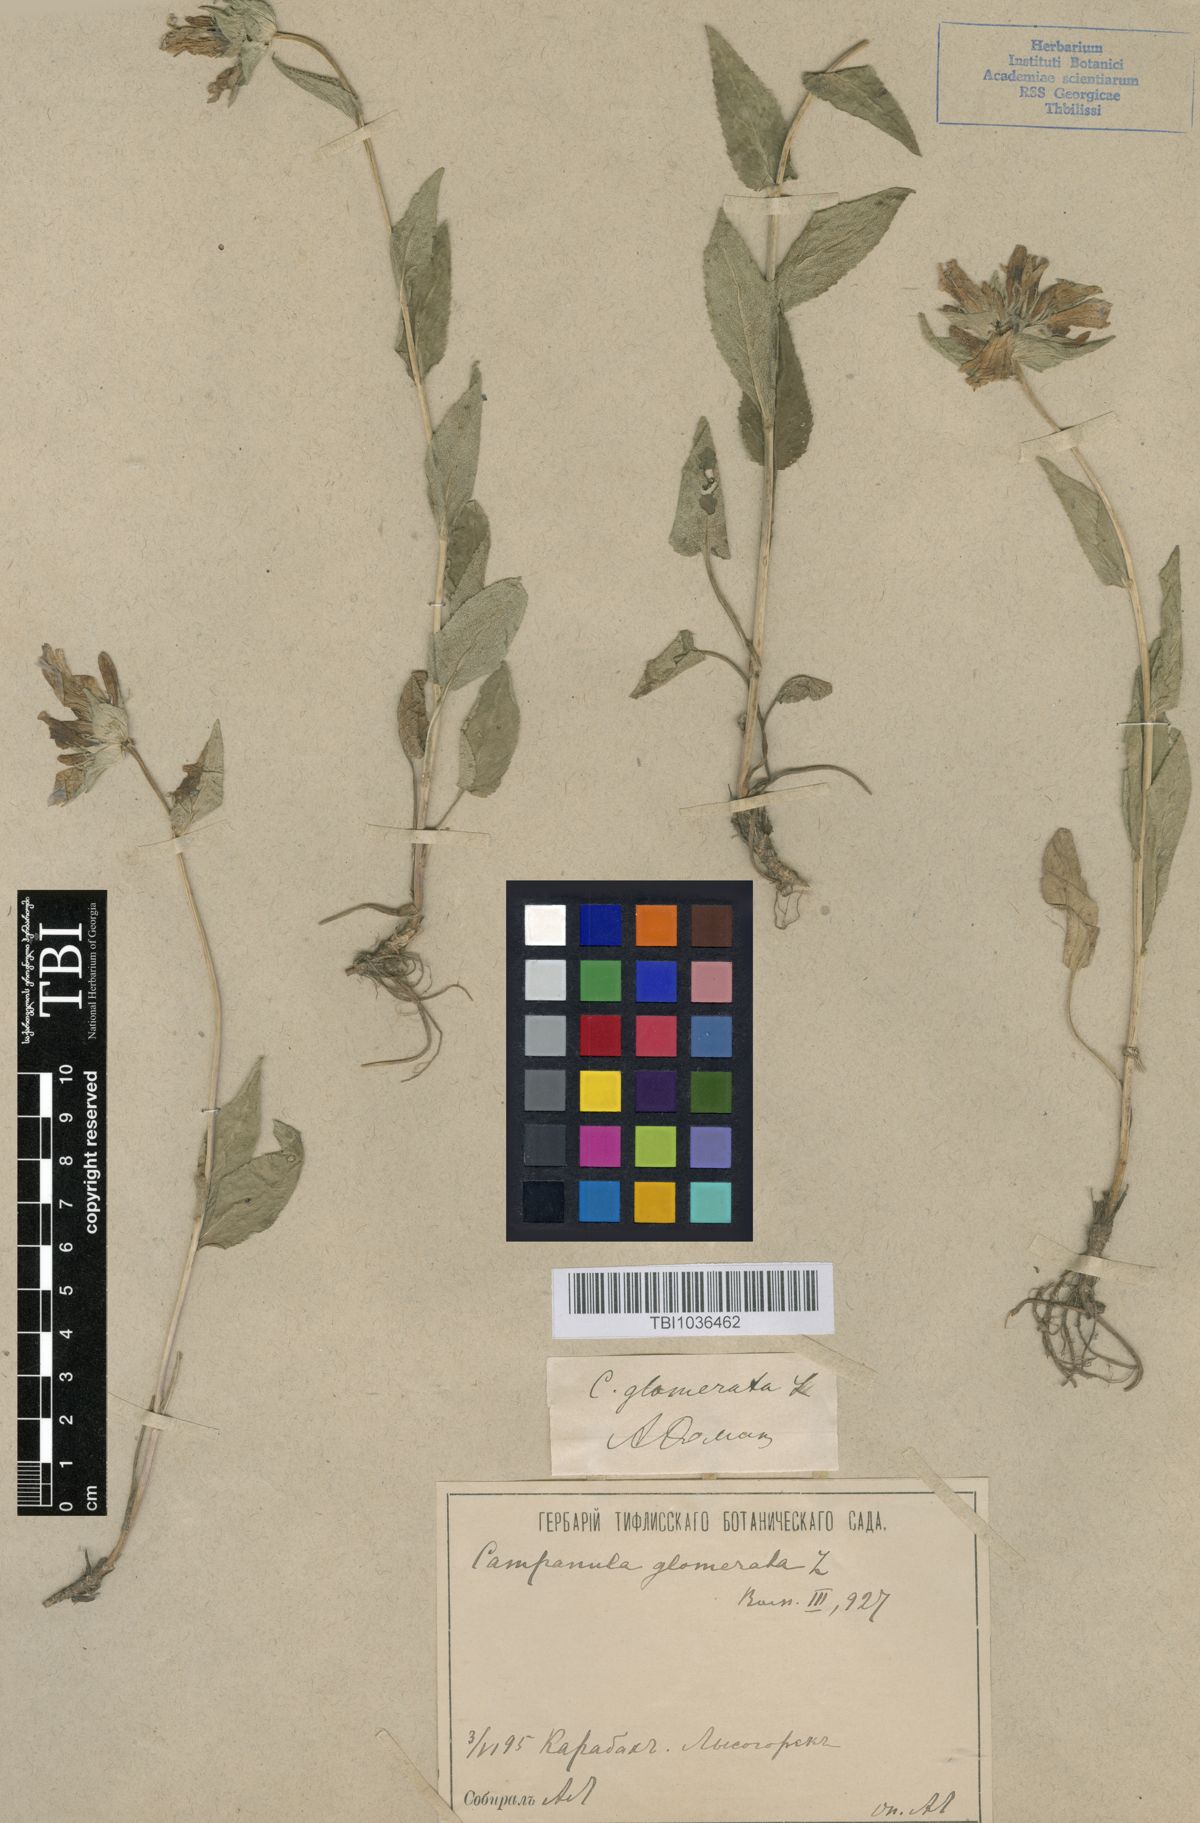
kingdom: Plantae
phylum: Tracheophyta
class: Magnoliopsida
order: Asterales
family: Campanulaceae
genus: Campanula
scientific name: Campanula glomerata
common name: Clustered bellflower
